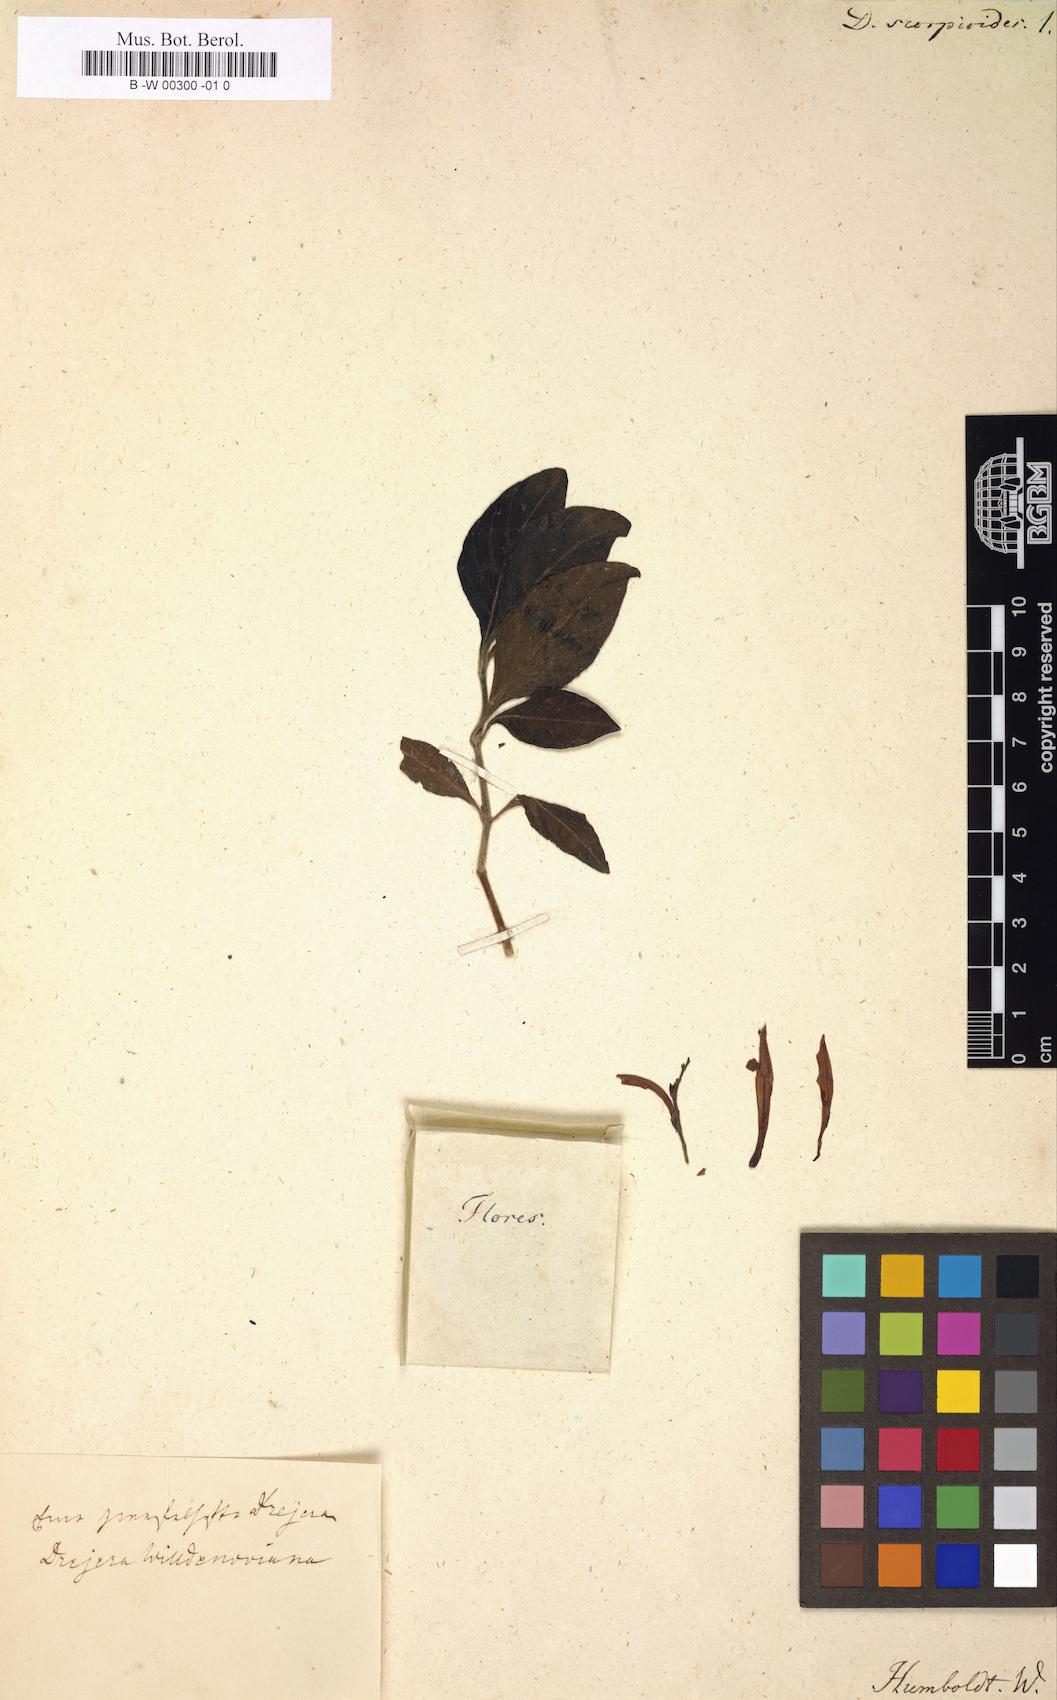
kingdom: Plantae
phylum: Tracheophyta
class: Magnoliopsida
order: Lamiales
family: Acanthaceae
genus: Dicliptera
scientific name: Dicliptera sexangularis
